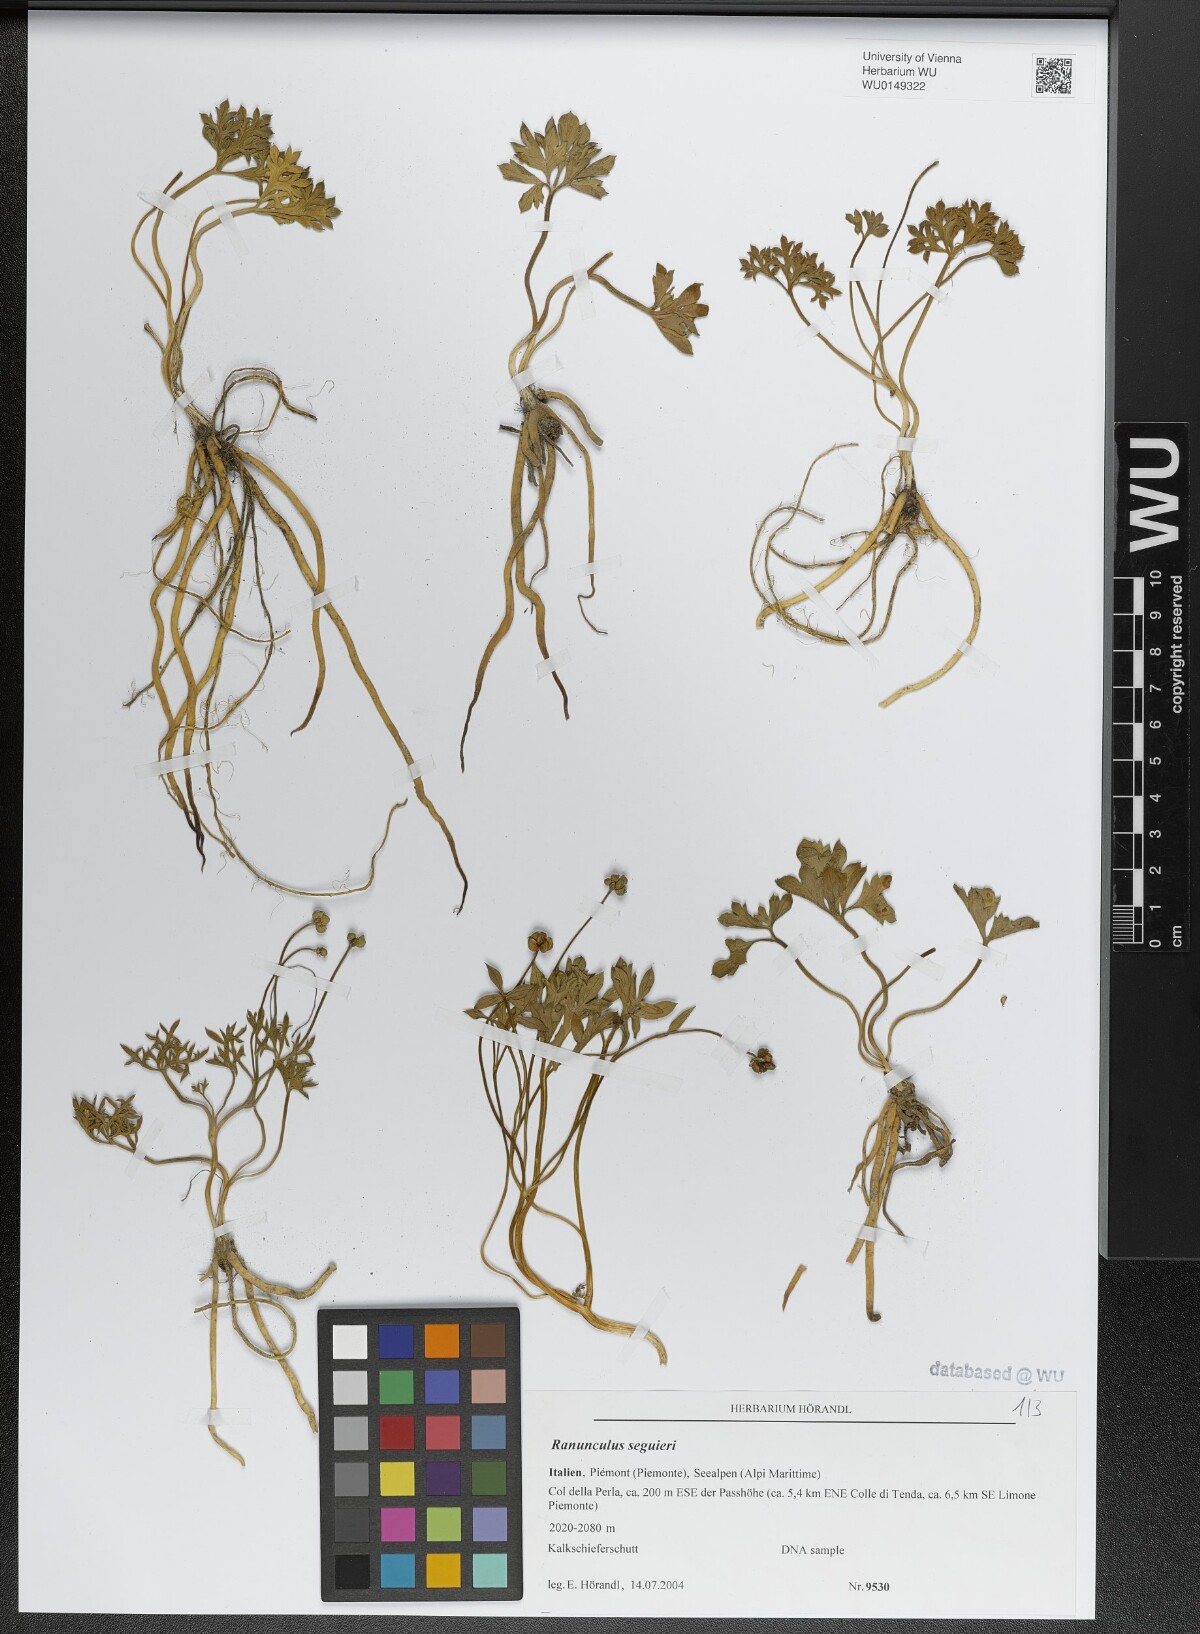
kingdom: Plantae
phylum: Tracheophyta
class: Magnoliopsida
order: Ranunculales
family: Ranunculaceae
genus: Ranunculus
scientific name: Ranunculus seguieri
